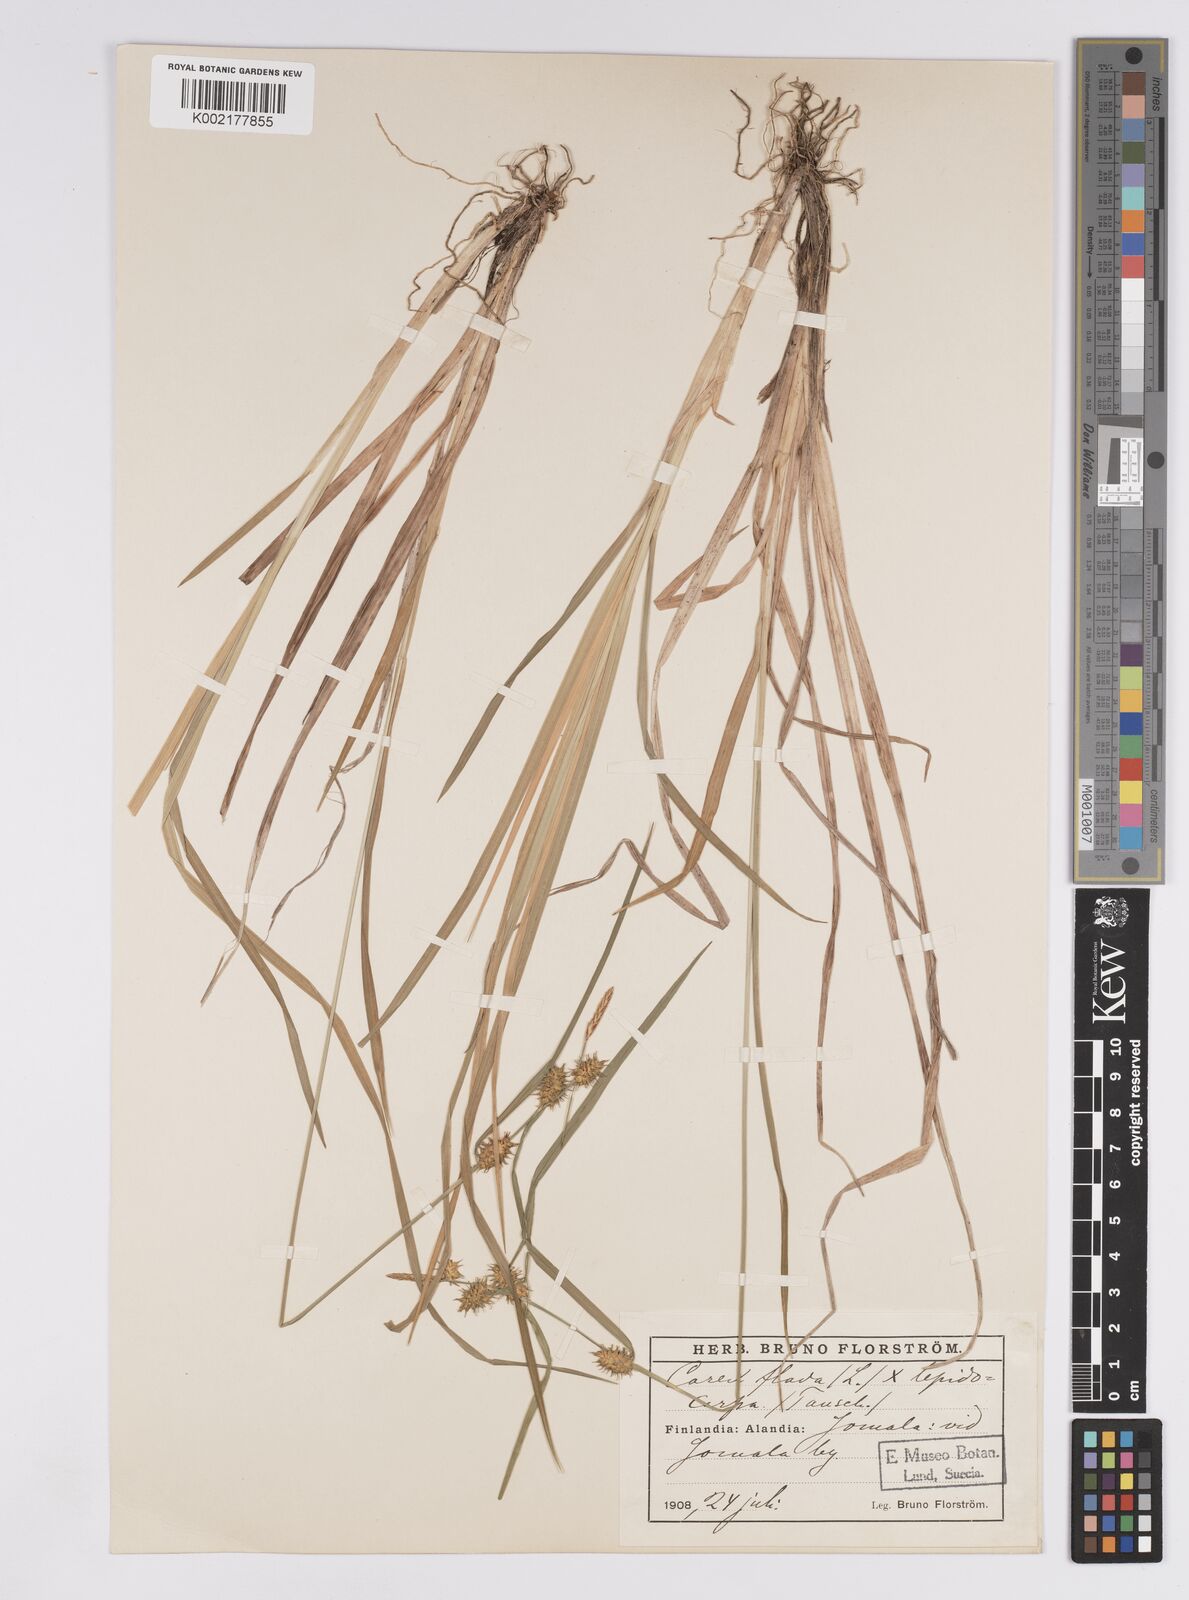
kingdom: Plantae
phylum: Tracheophyta
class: Liliopsida
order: Poales
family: Cyperaceae
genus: Carex
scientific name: Carex flava
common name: Large yellow-sedge
